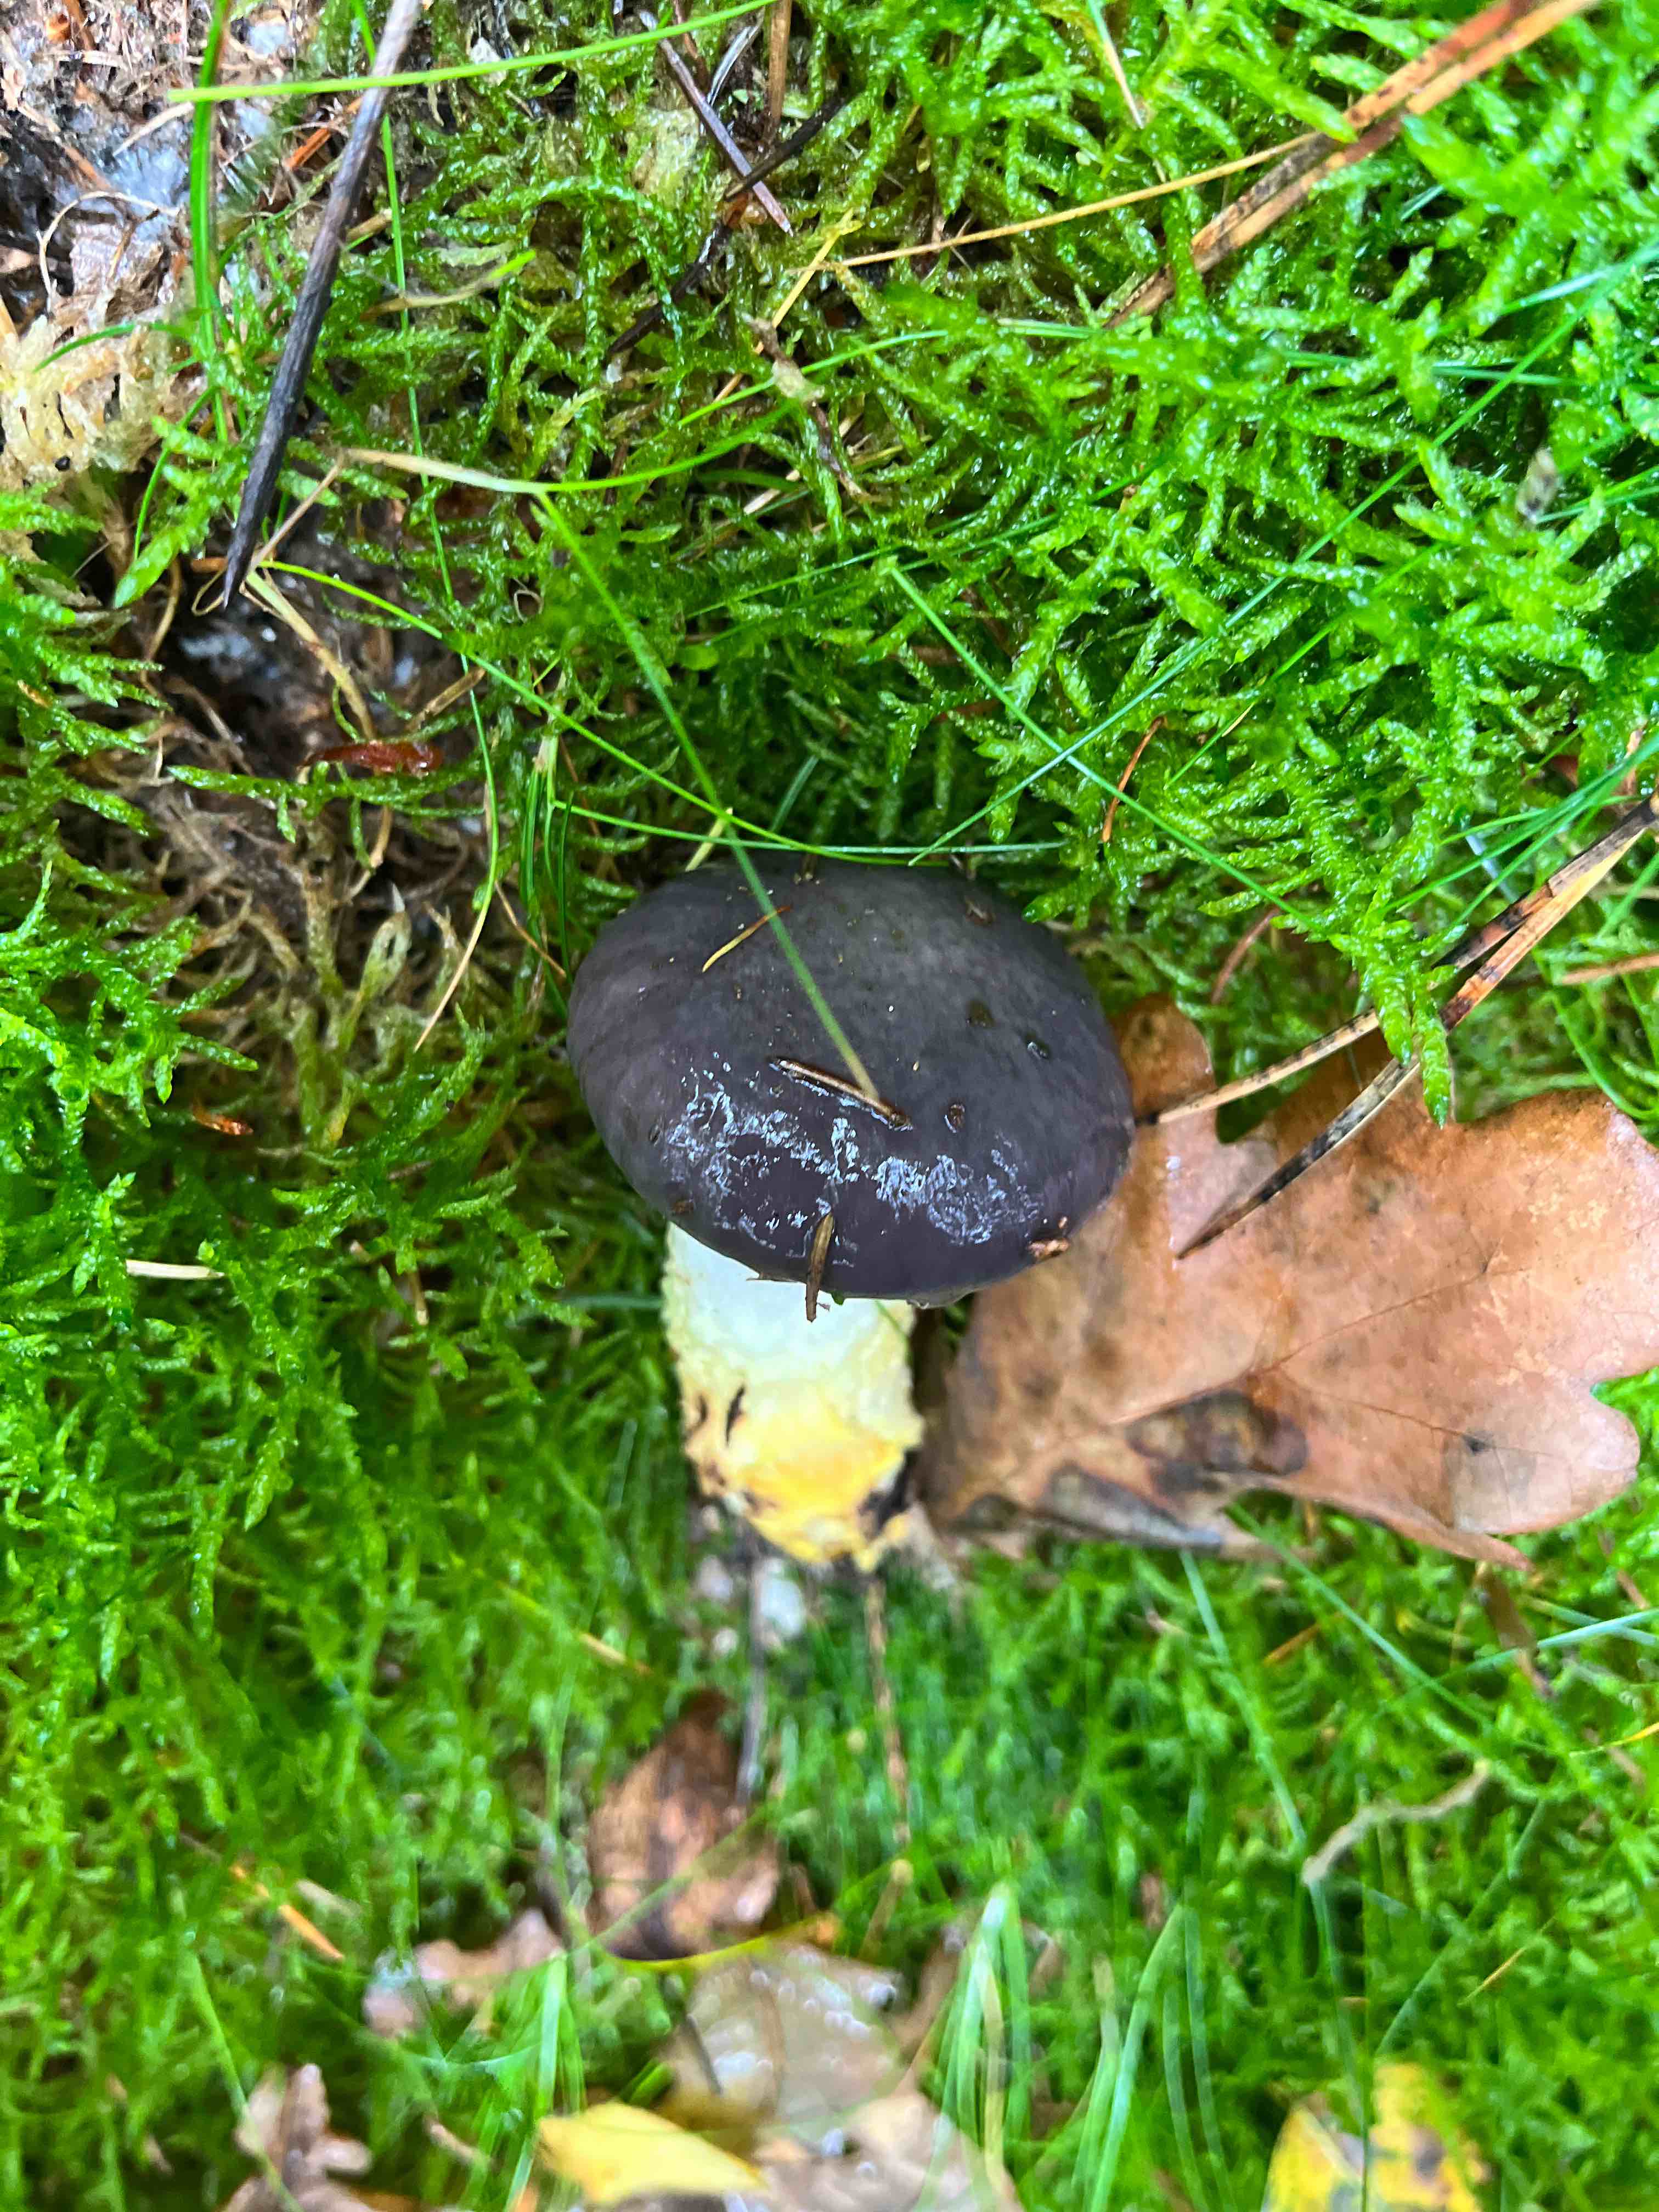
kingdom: Fungi
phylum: Basidiomycota
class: Agaricomycetes
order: Boletales
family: Gomphidiaceae
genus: Gomphidius
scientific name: Gomphidius glutinosus
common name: grå slimslør
